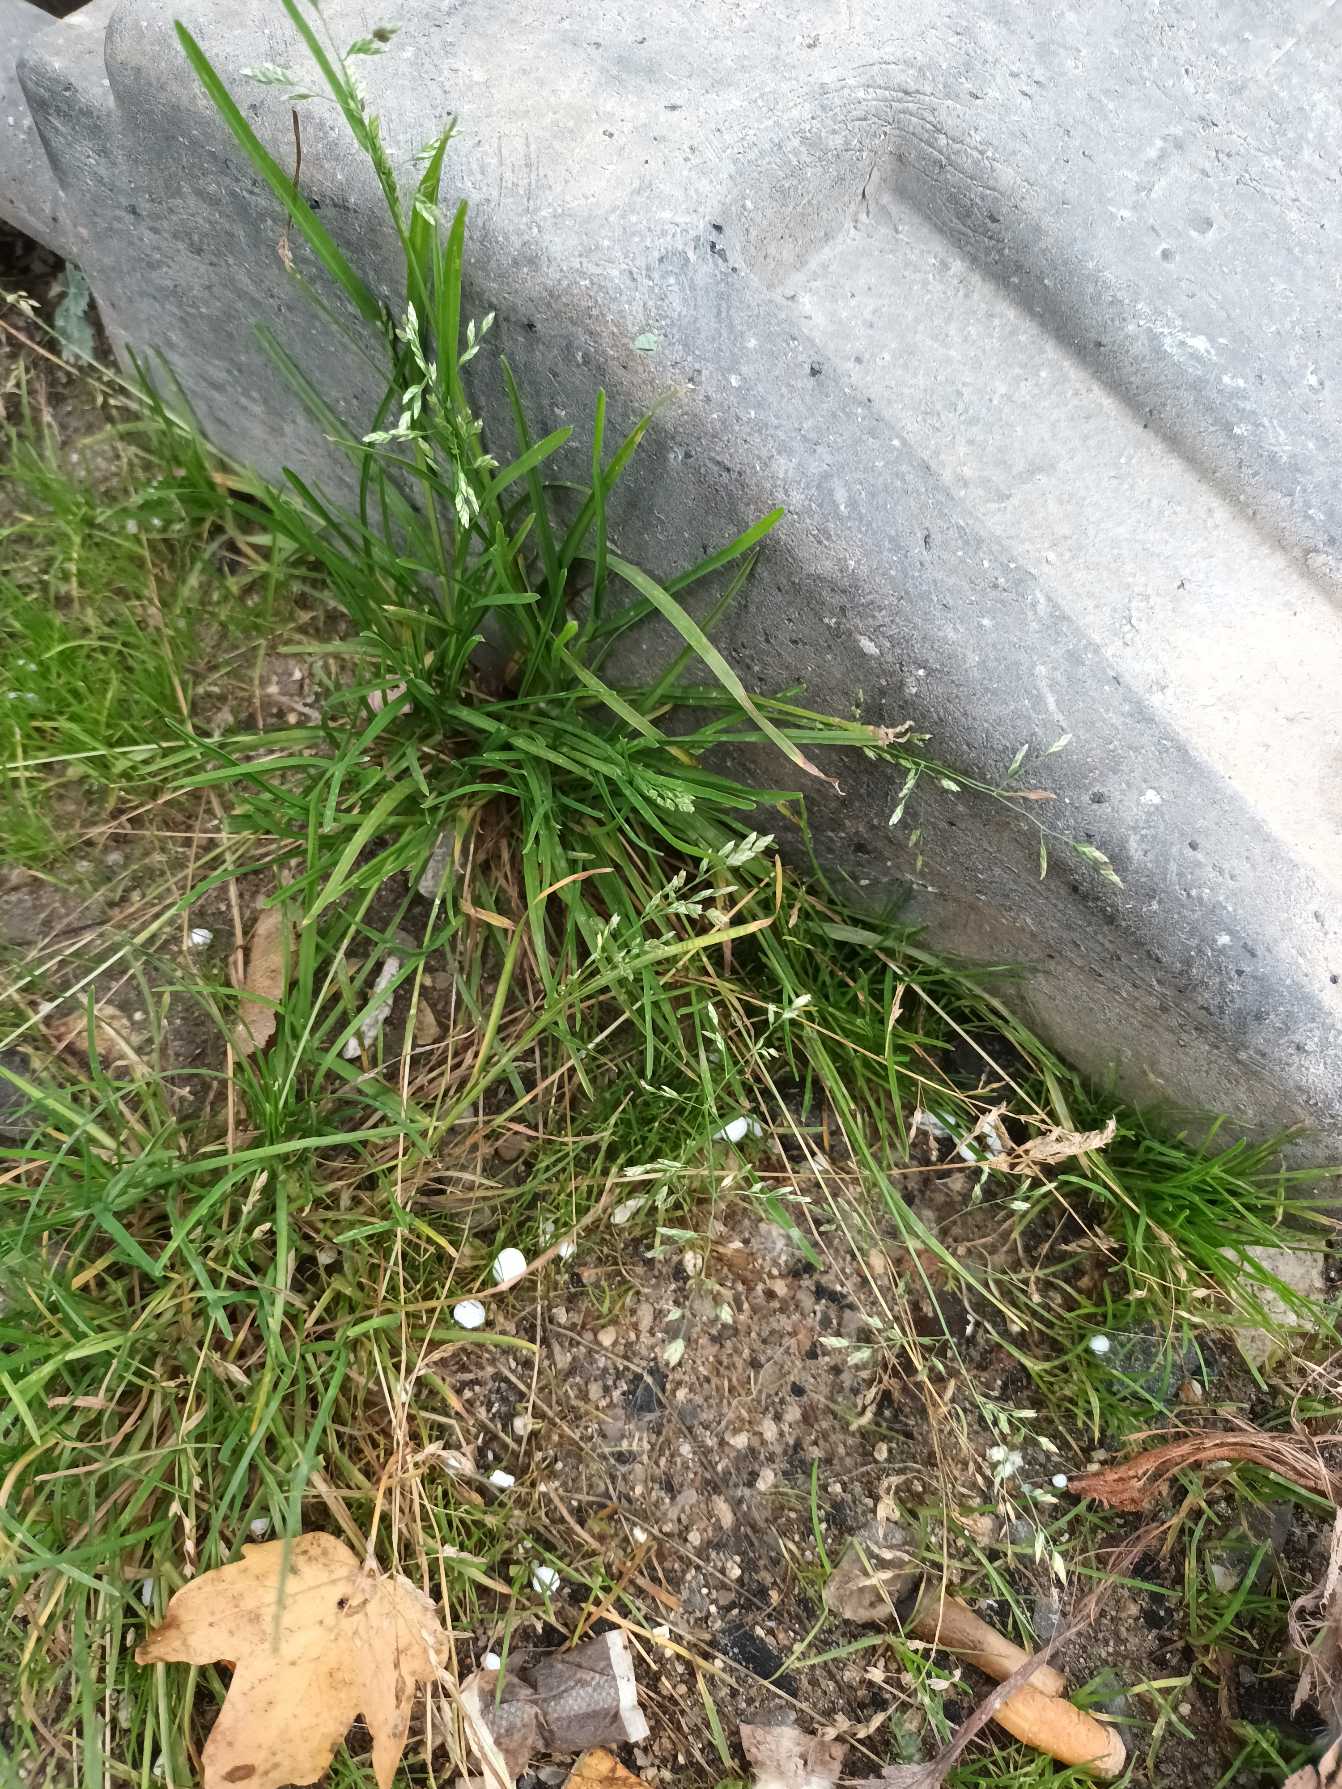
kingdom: Plantae
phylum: Tracheophyta
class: Liliopsida
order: Poales
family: Poaceae
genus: Poa
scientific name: Poa annua
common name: Enårig rapgræs
